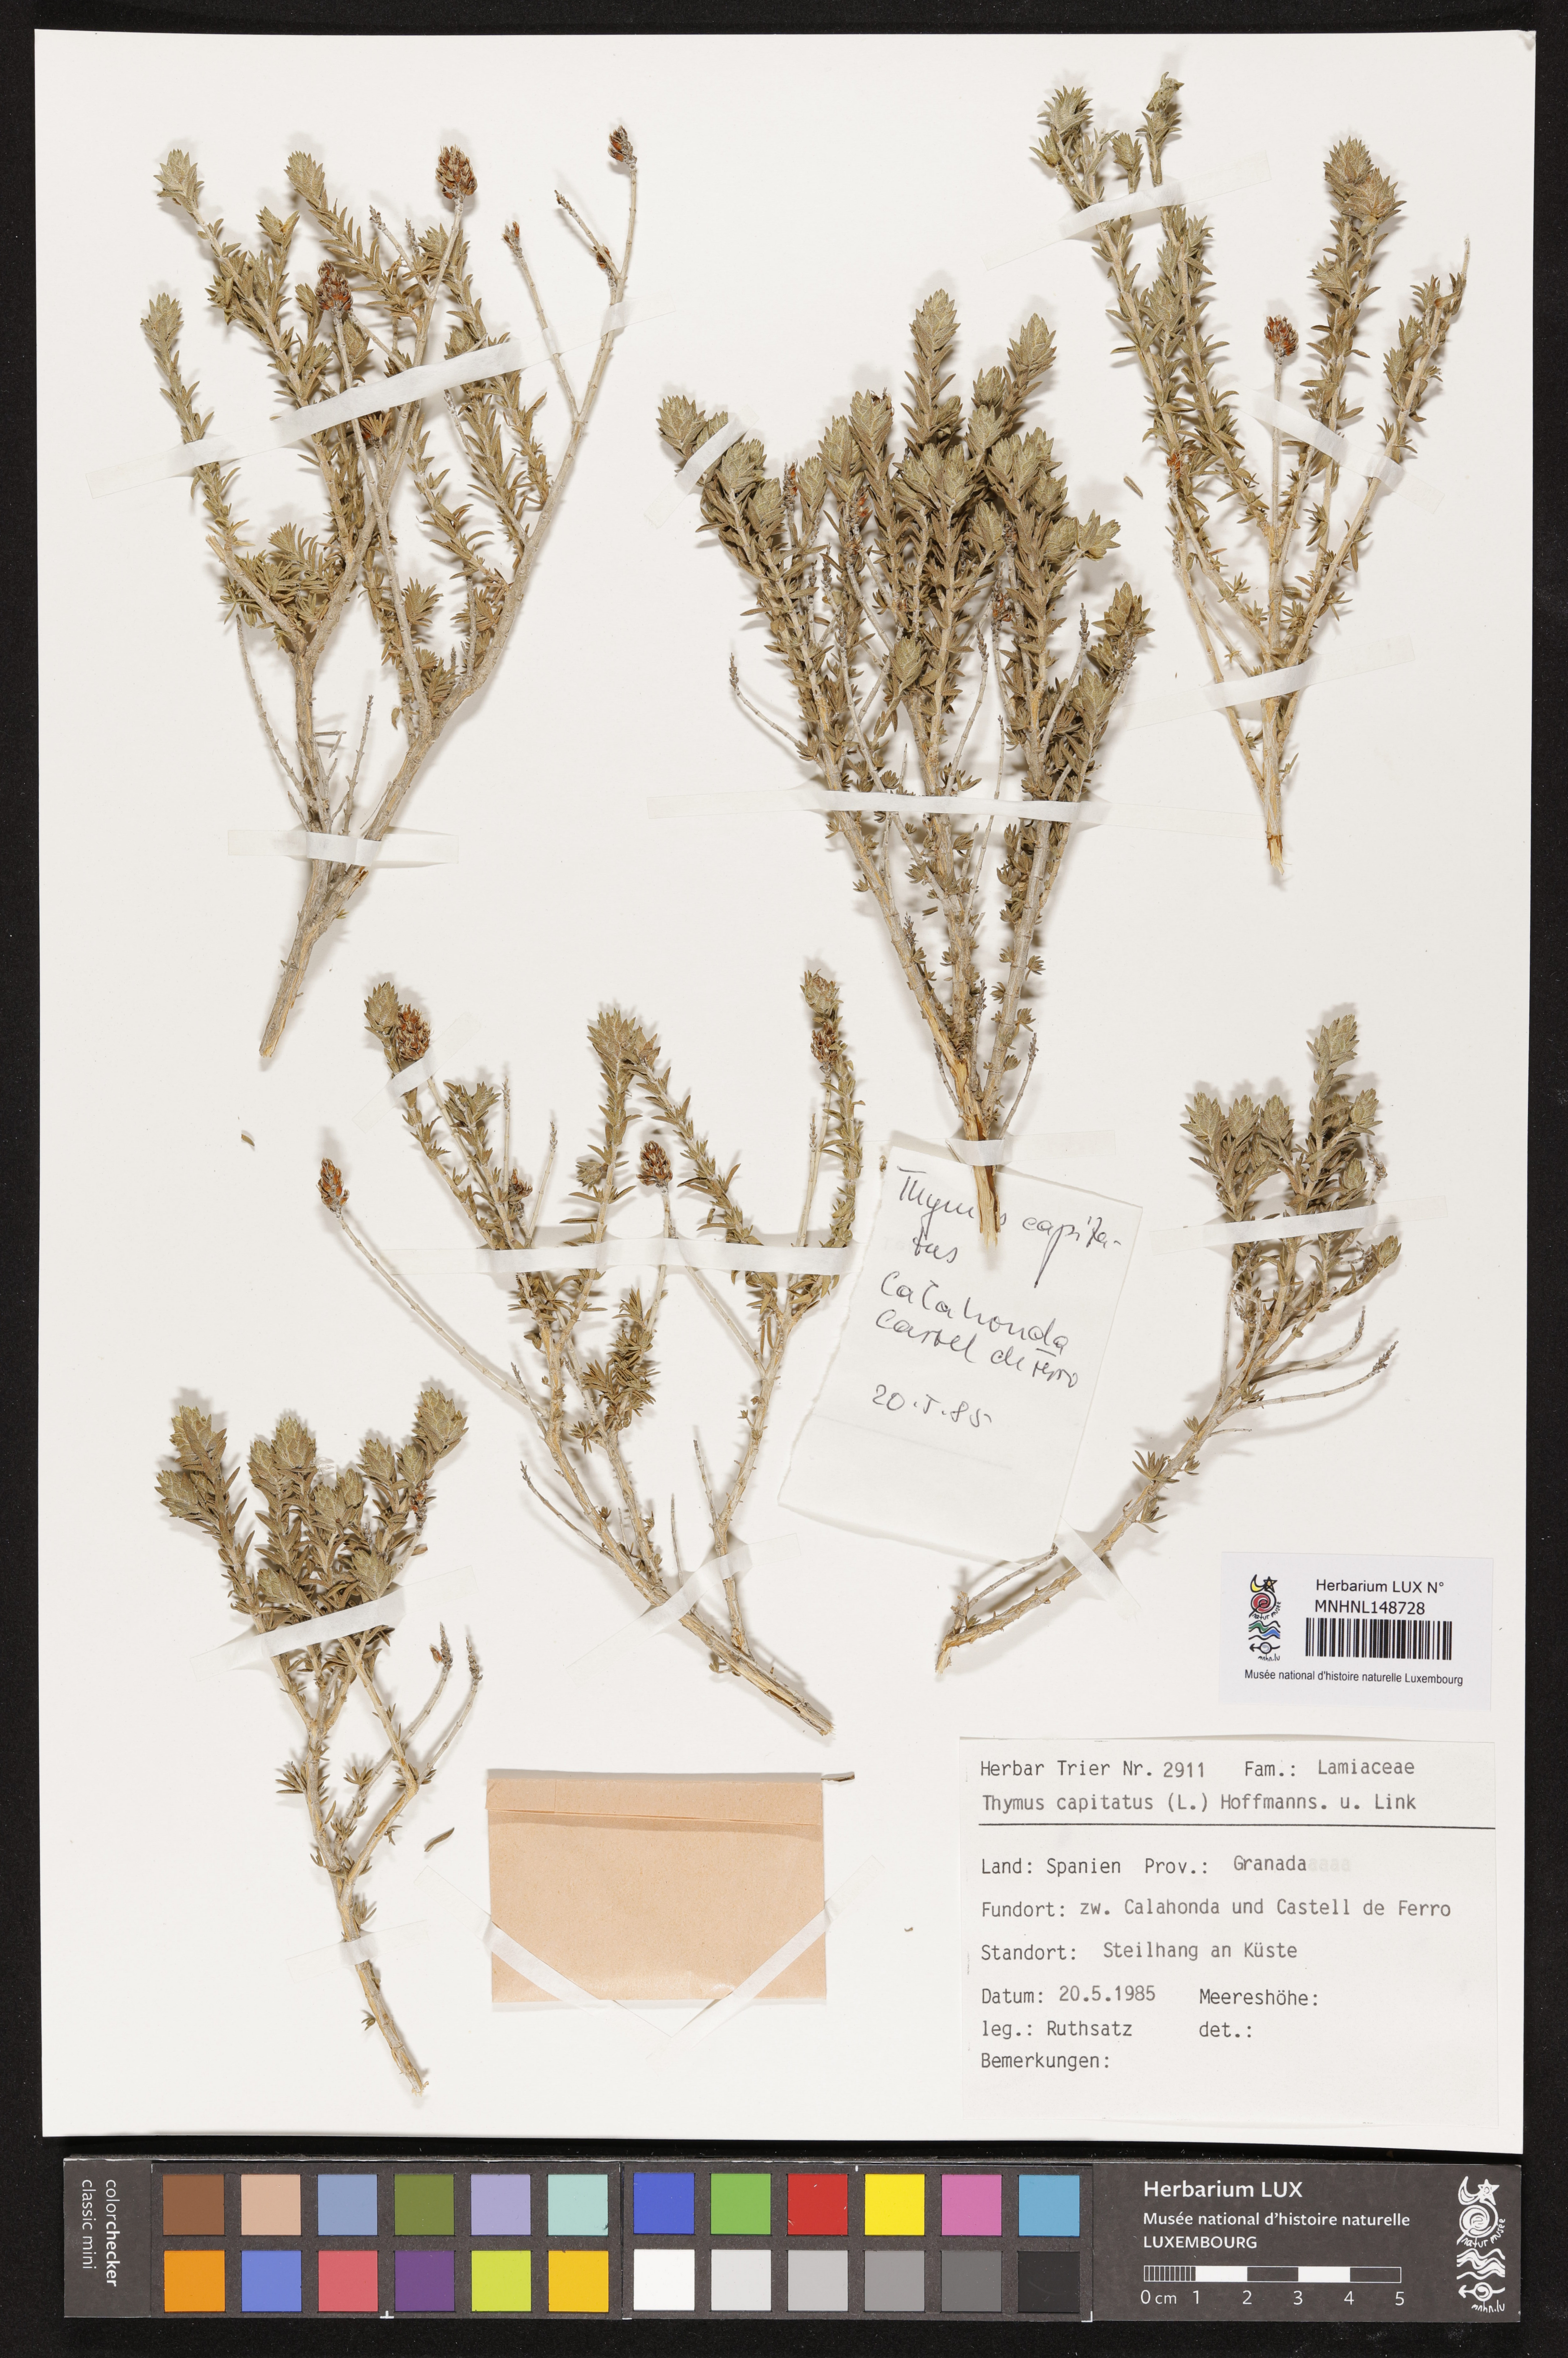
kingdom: Plantae
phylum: Tracheophyta
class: Magnoliopsida
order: Lamiales
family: Lamiaceae
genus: Thymbra
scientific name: Thymbra capitata
